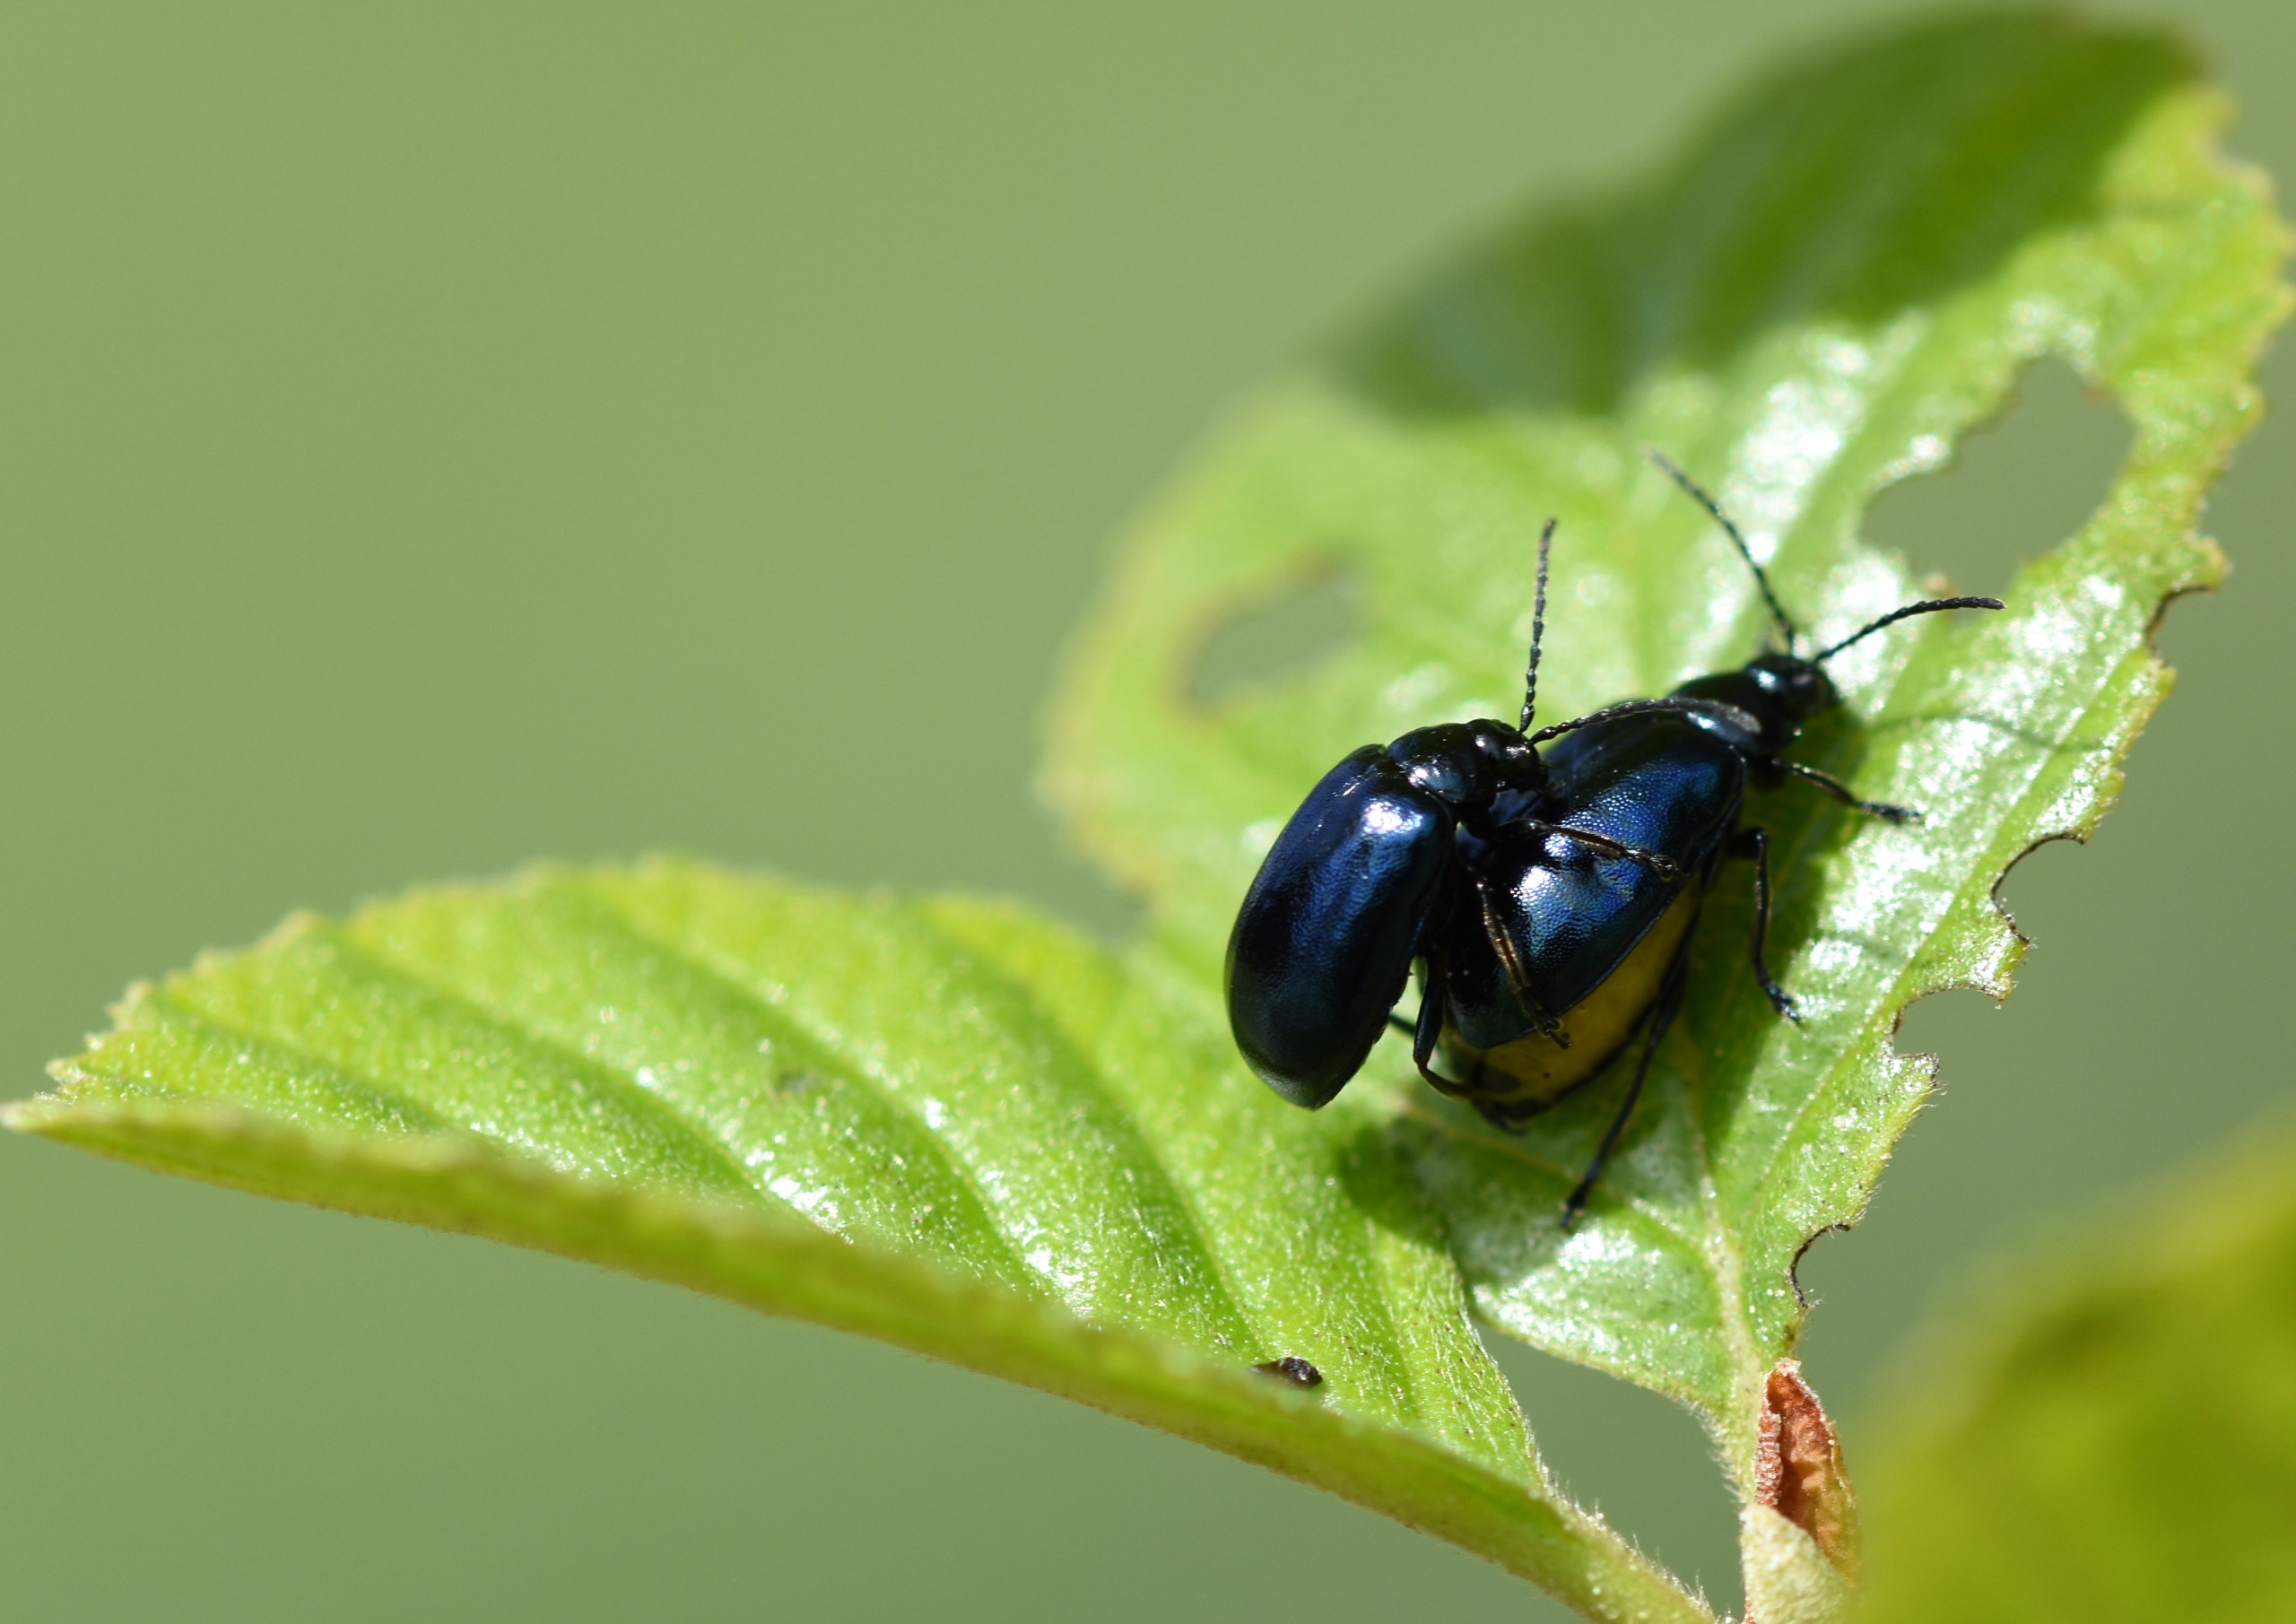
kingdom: Animalia
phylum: Arthropoda
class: Insecta
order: Coleoptera
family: Chrysomelidae
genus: Agelastica
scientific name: Agelastica alni
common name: Ellebladbille
